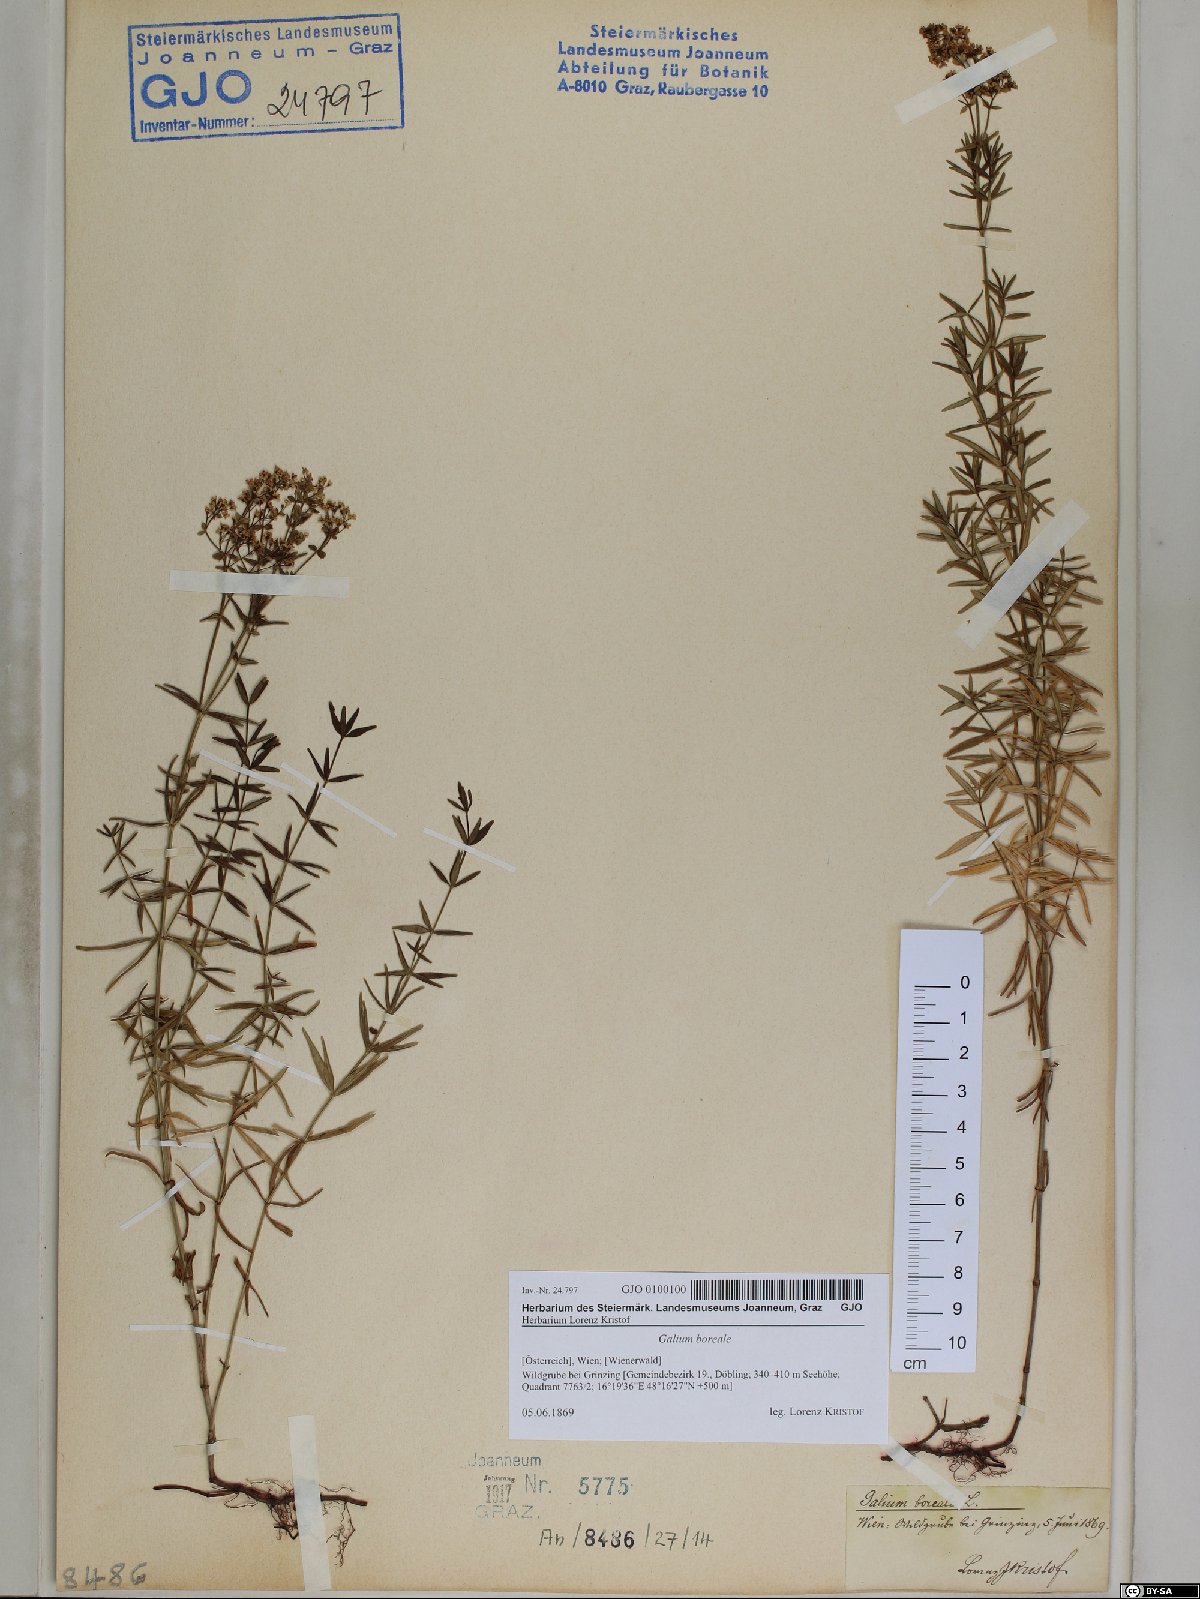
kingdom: Plantae
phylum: Tracheophyta
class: Magnoliopsida
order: Gentianales
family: Rubiaceae
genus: Galium
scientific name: Galium boreale
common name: Northern bedstraw
